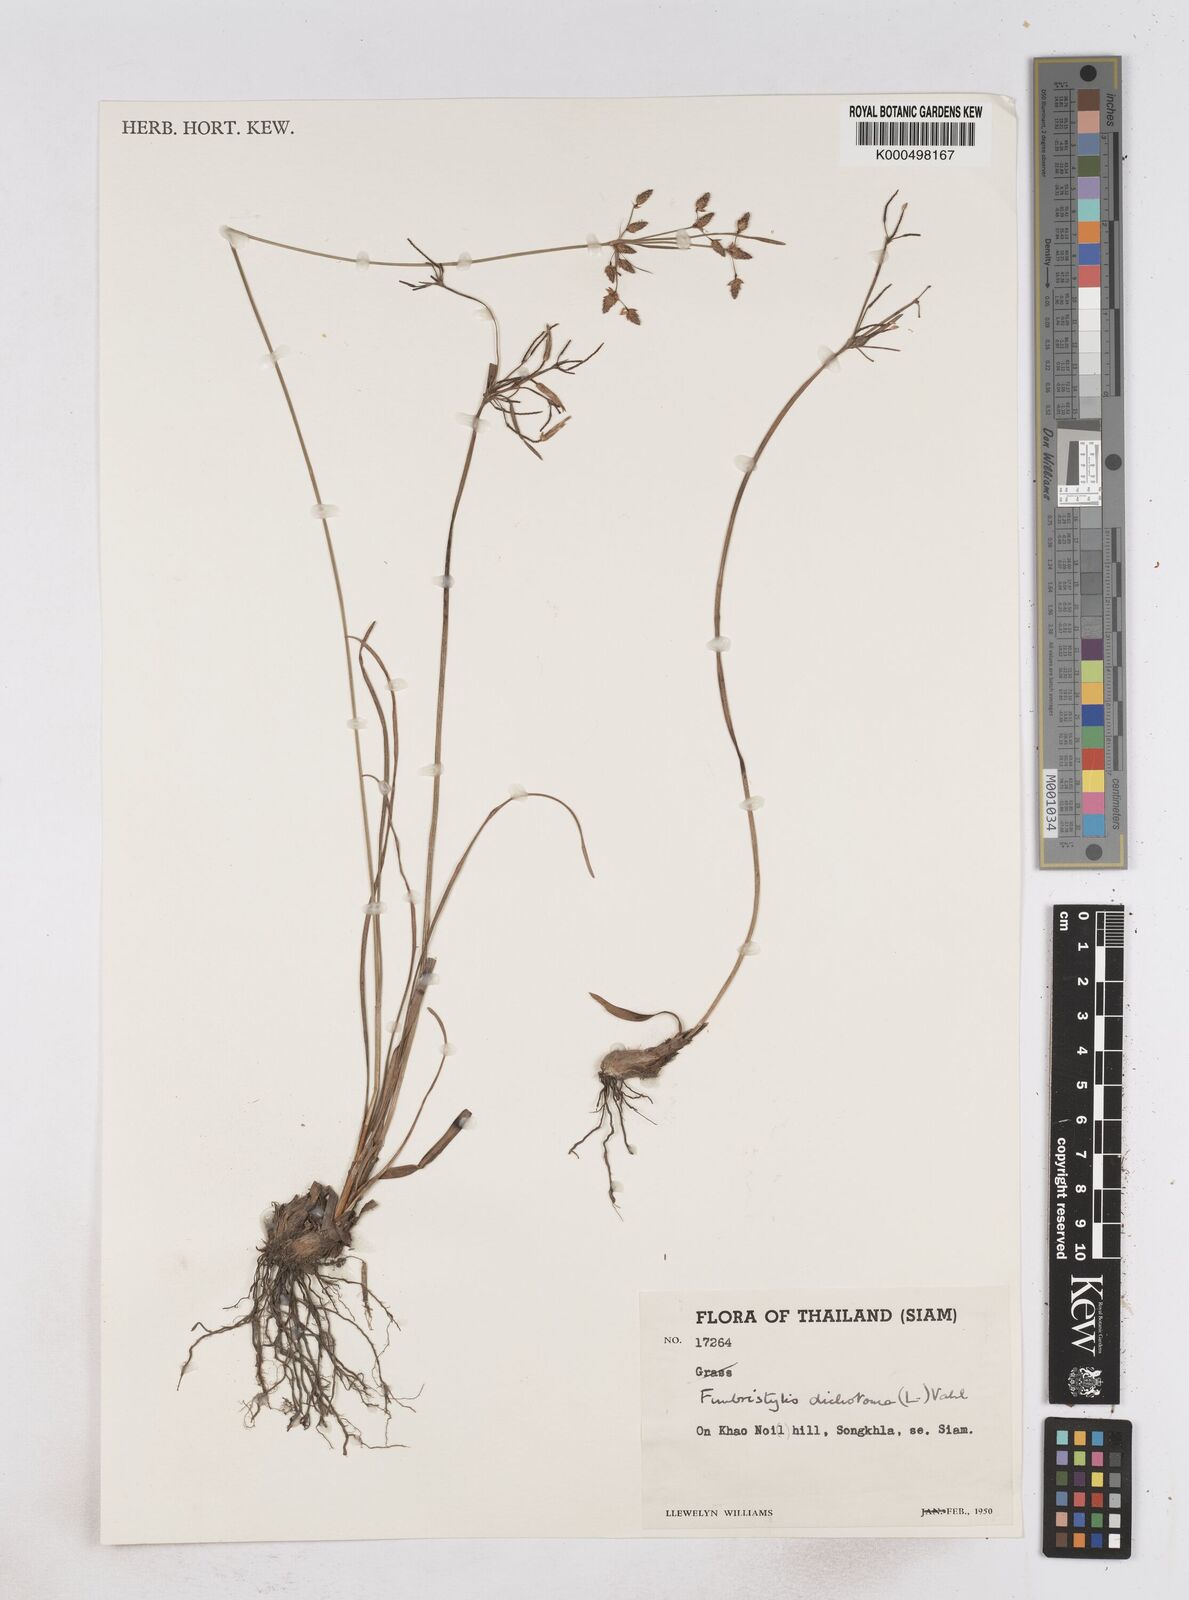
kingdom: Plantae
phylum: Tracheophyta
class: Liliopsida
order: Poales
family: Cyperaceae
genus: Fimbristylis
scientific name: Fimbristylis dichotoma
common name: Forked fimbry
